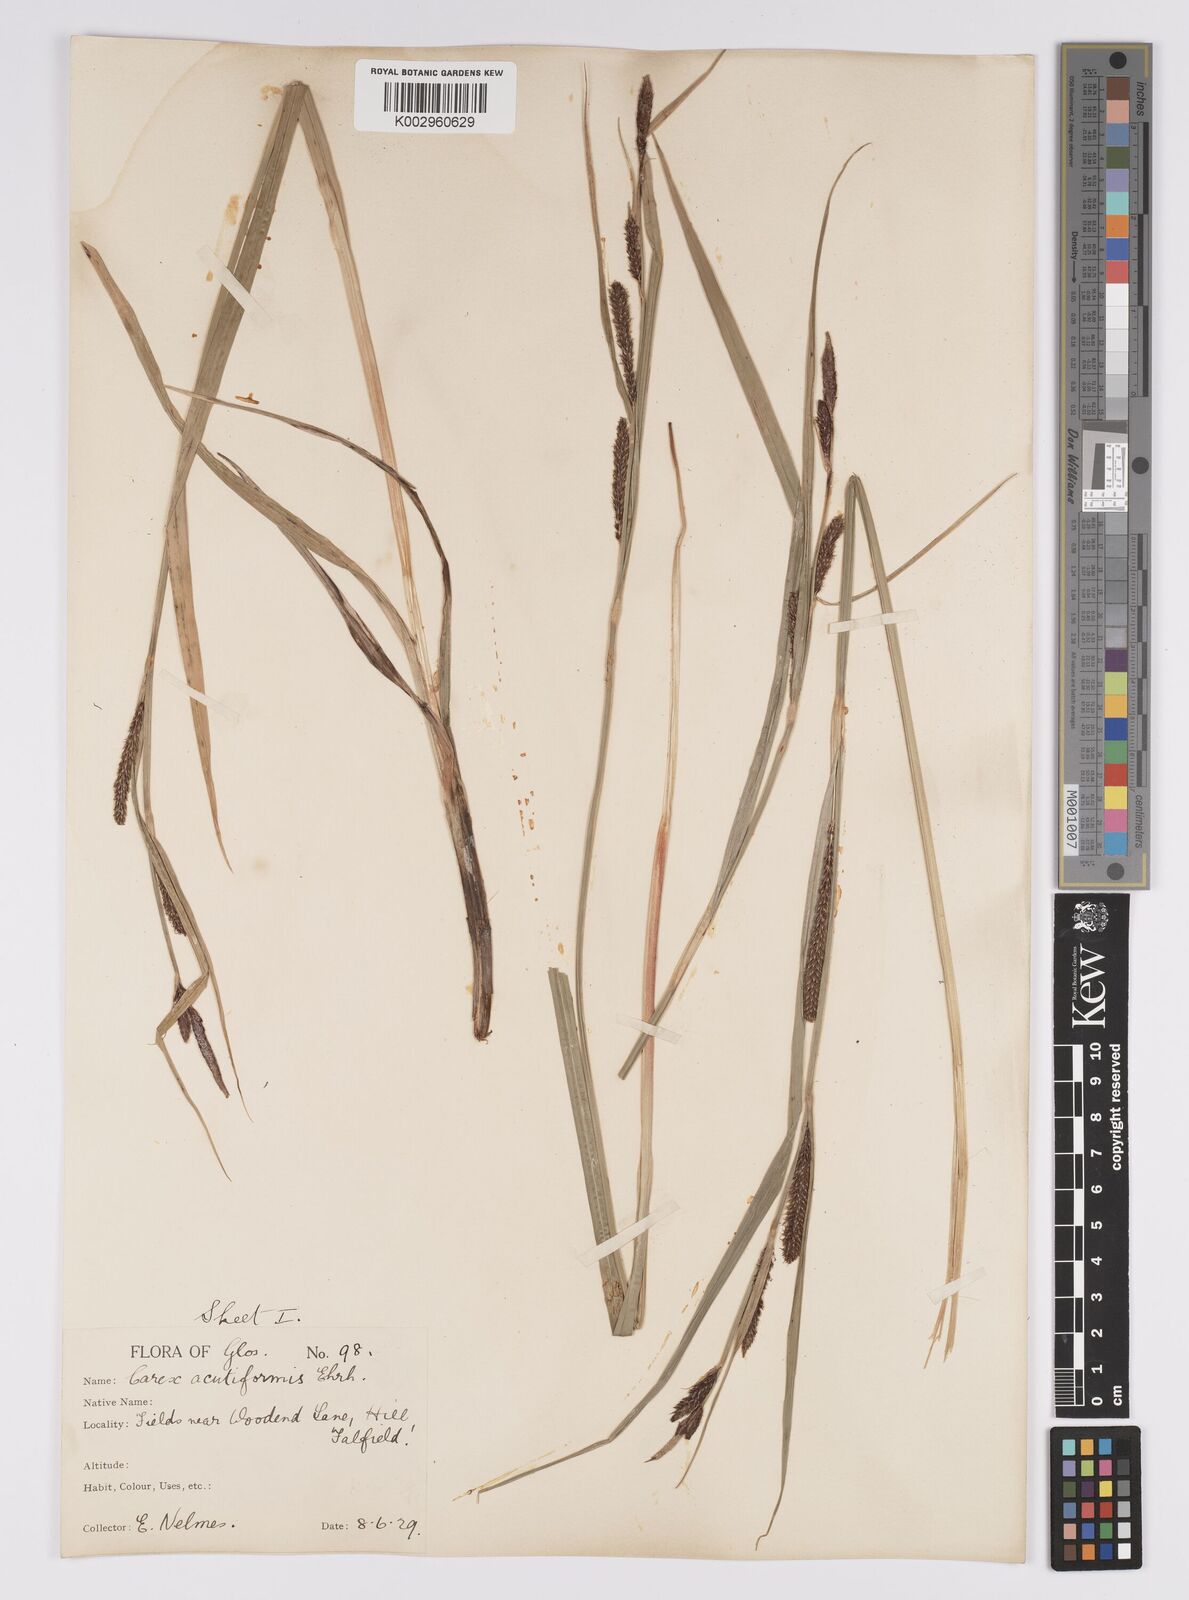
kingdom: Plantae
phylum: Tracheophyta
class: Liliopsida
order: Poales
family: Cyperaceae
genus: Carex
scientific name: Carex acutiformis
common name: Lesser pond-sedge
